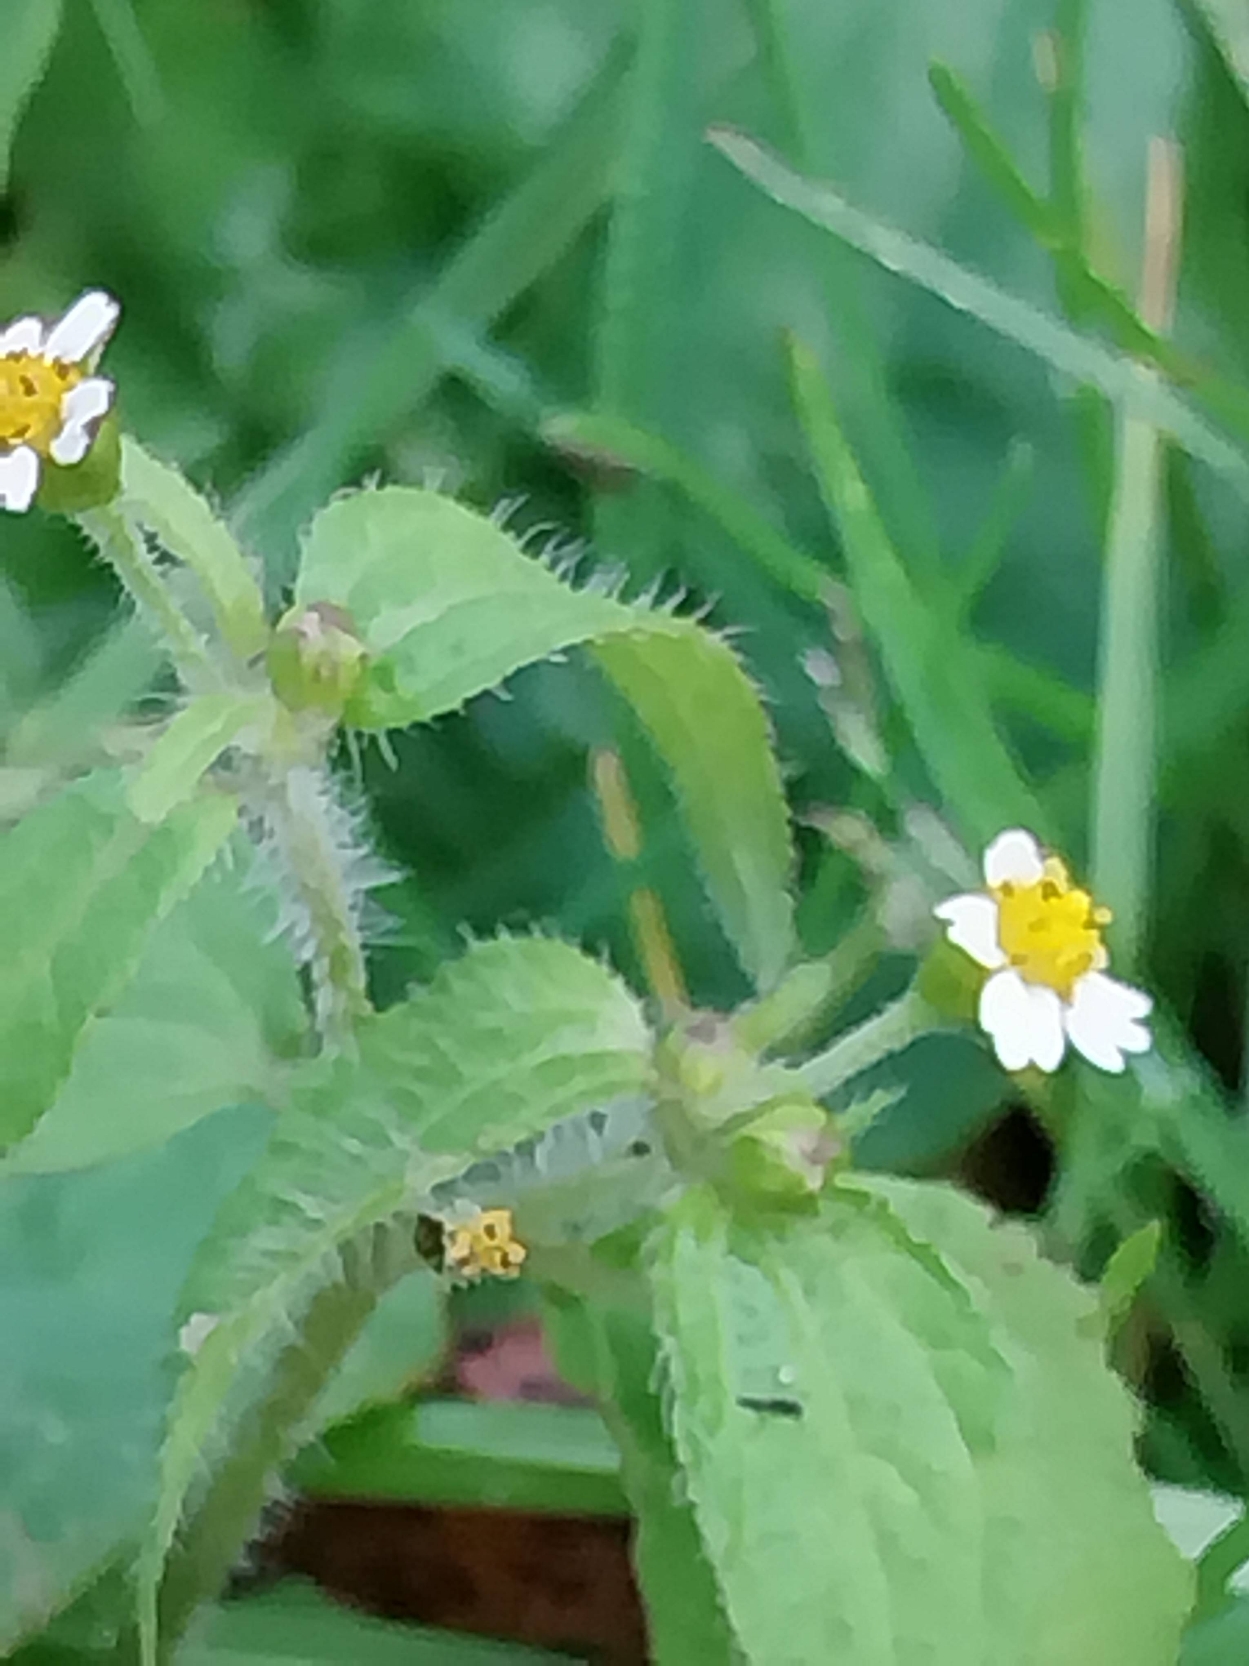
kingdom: Plantae
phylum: Tracheophyta
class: Magnoliopsida
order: Asterales
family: Asteraceae
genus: Galinsoga
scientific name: Galinsoga quadriradiata
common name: Kirtel-kortstråle
